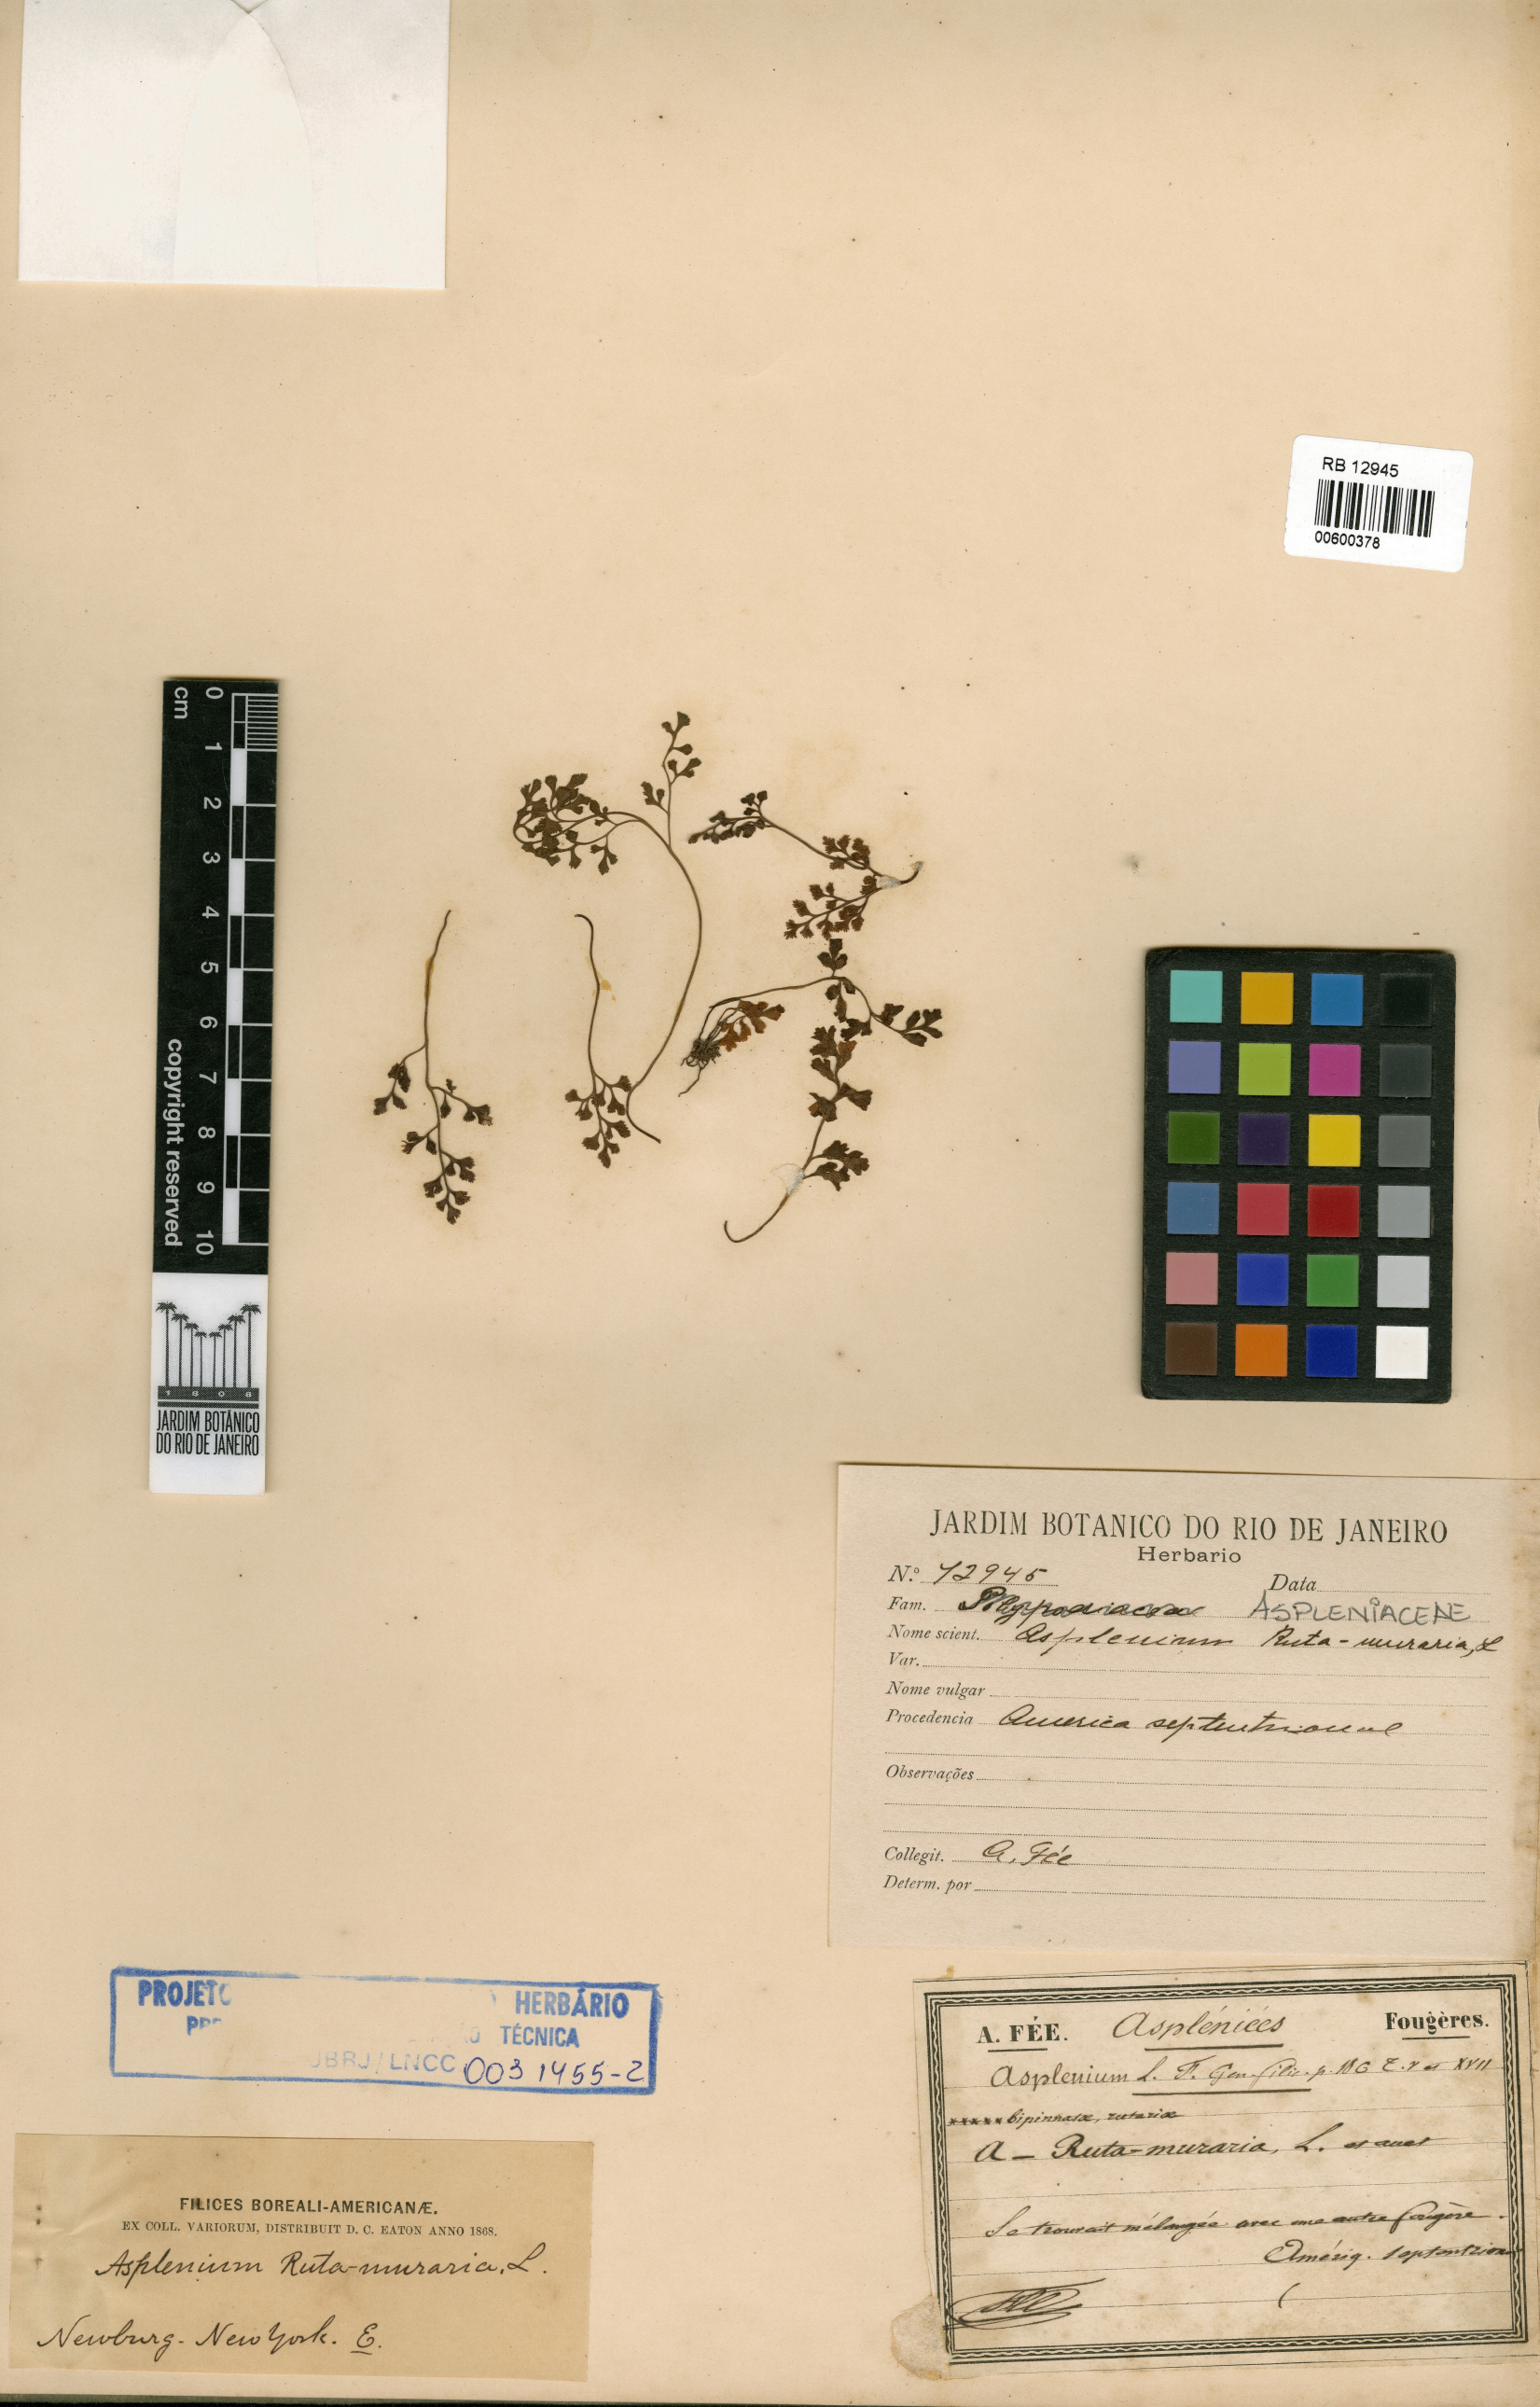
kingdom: Plantae
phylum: Tracheophyta
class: Polypodiopsida
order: Polypodiales
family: Aspleniaceae
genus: Asplenium
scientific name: Asplenium ruta-muraria
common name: Wall-rue
